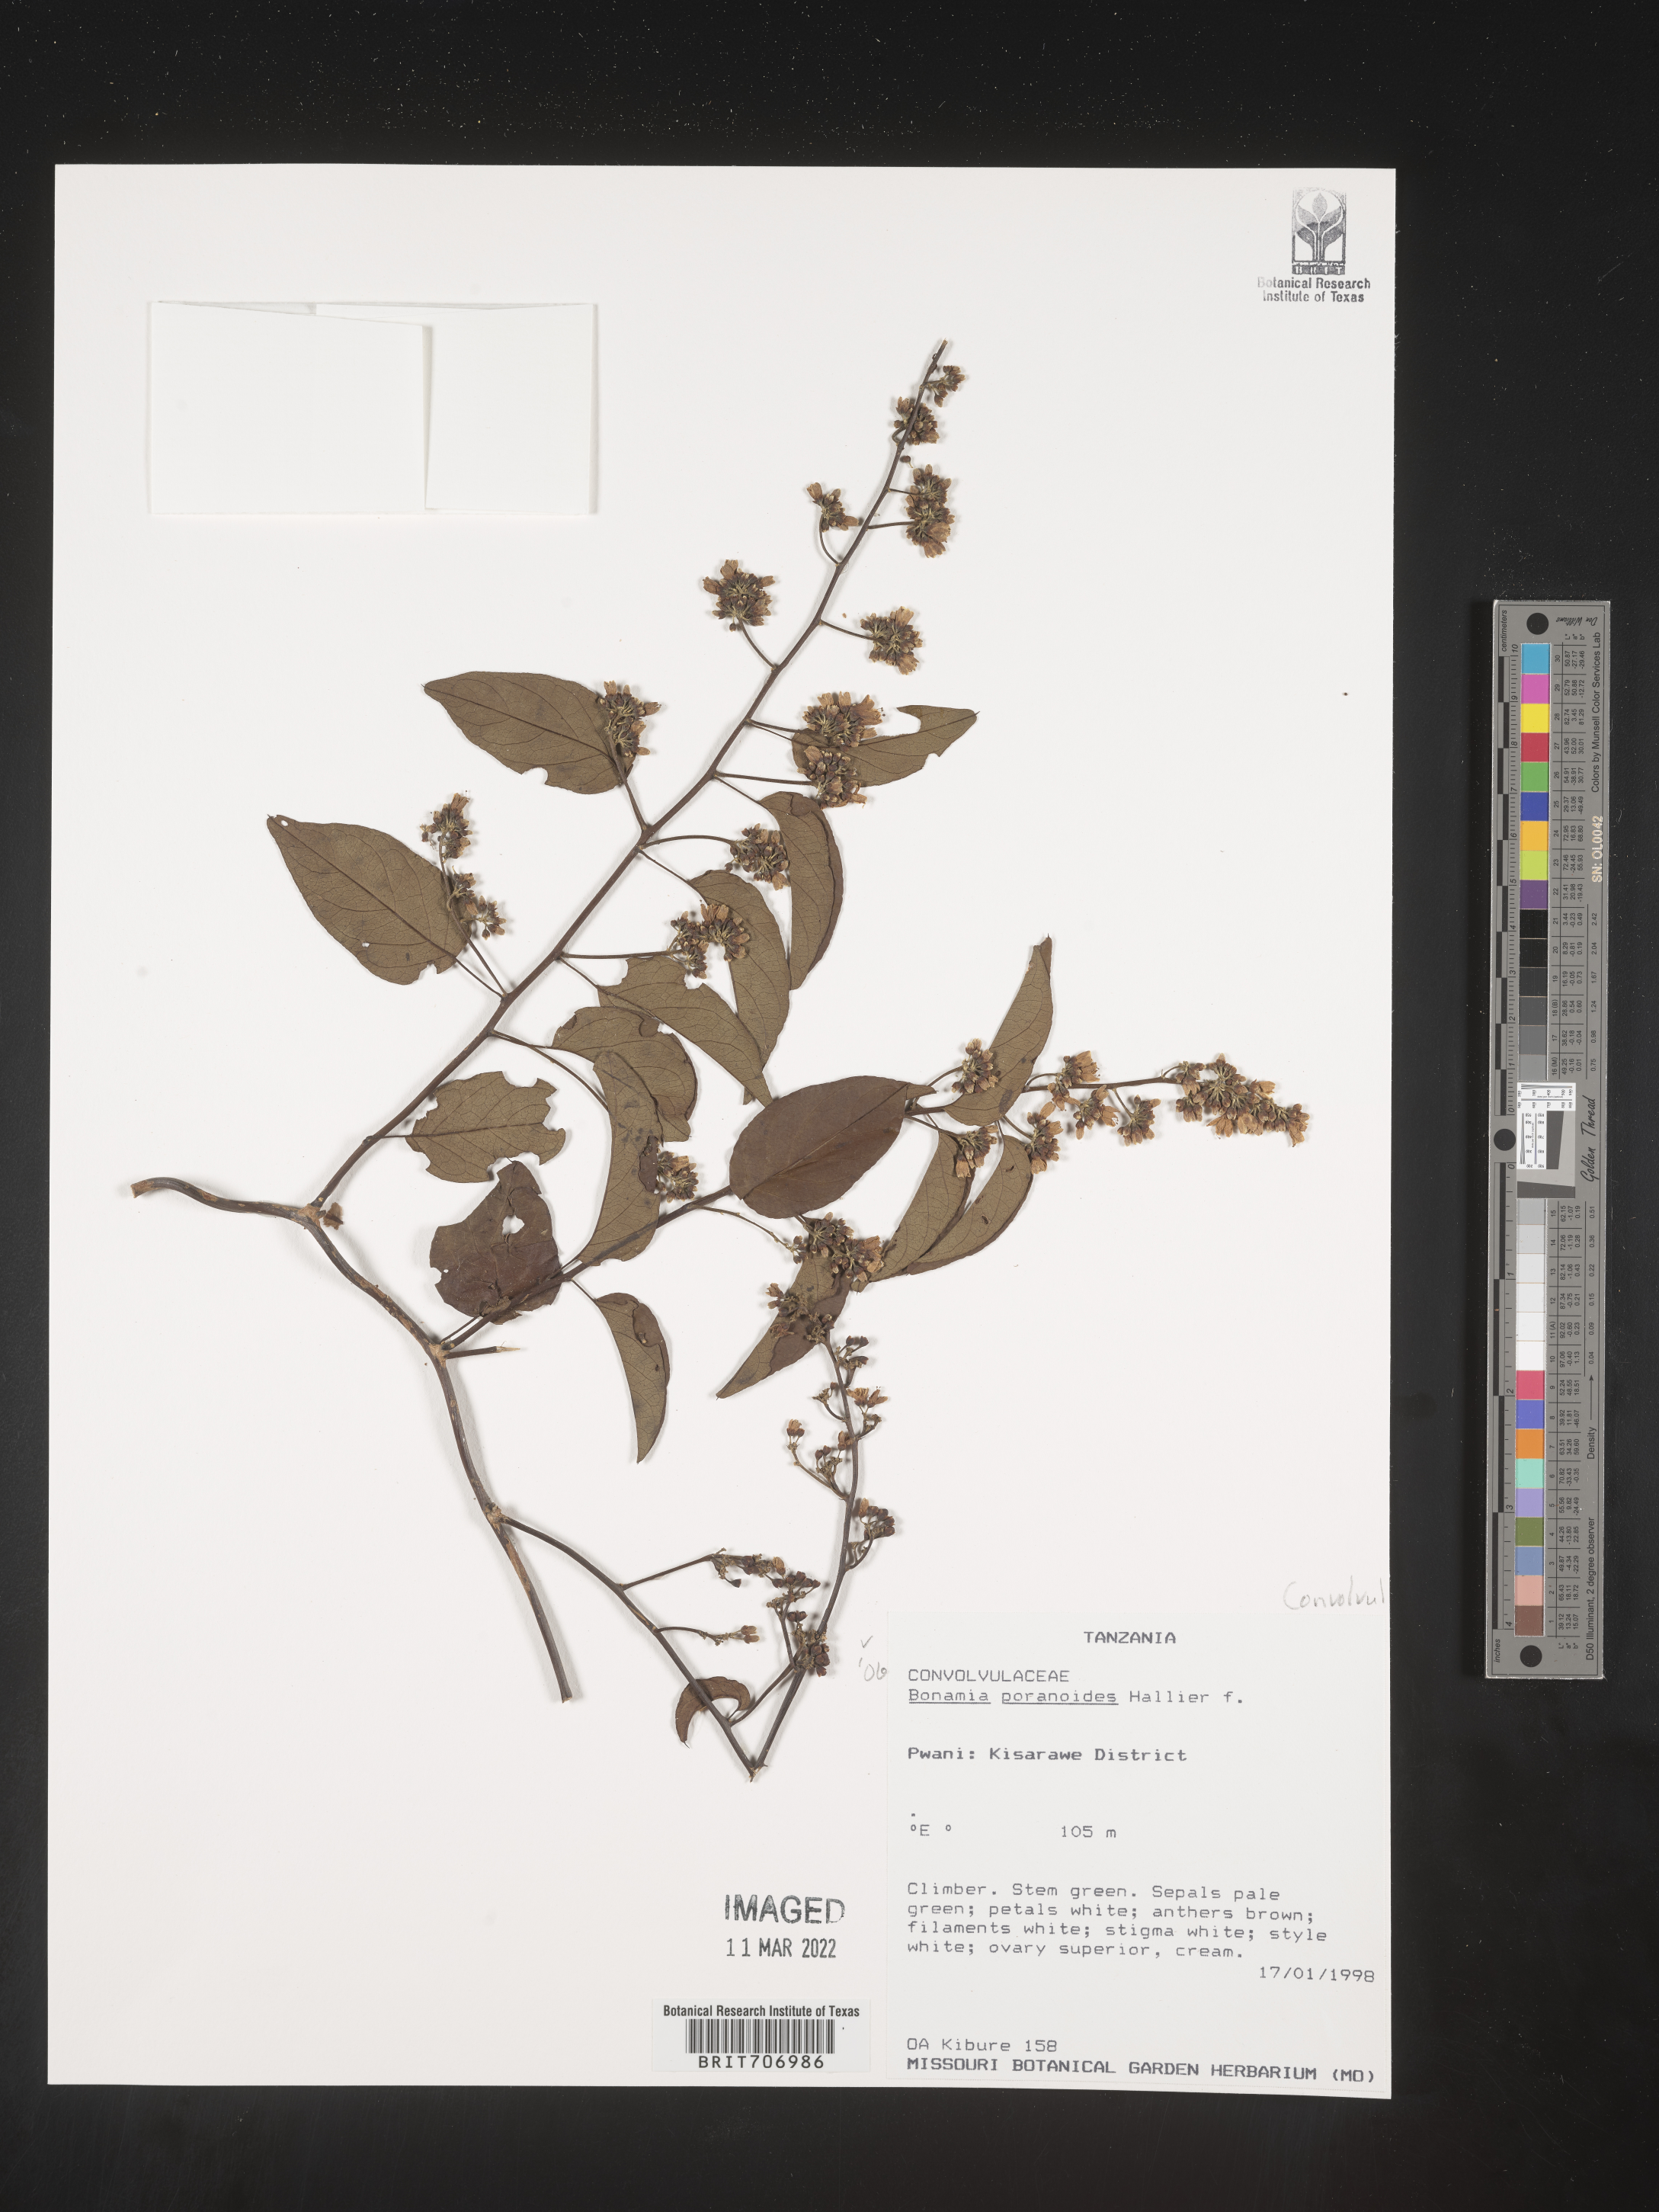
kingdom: Plantae
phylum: Tracheophyta
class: Magnoliopsida
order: Solanales
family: Convolvulaceae
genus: Bonamia
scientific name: Bonamia
